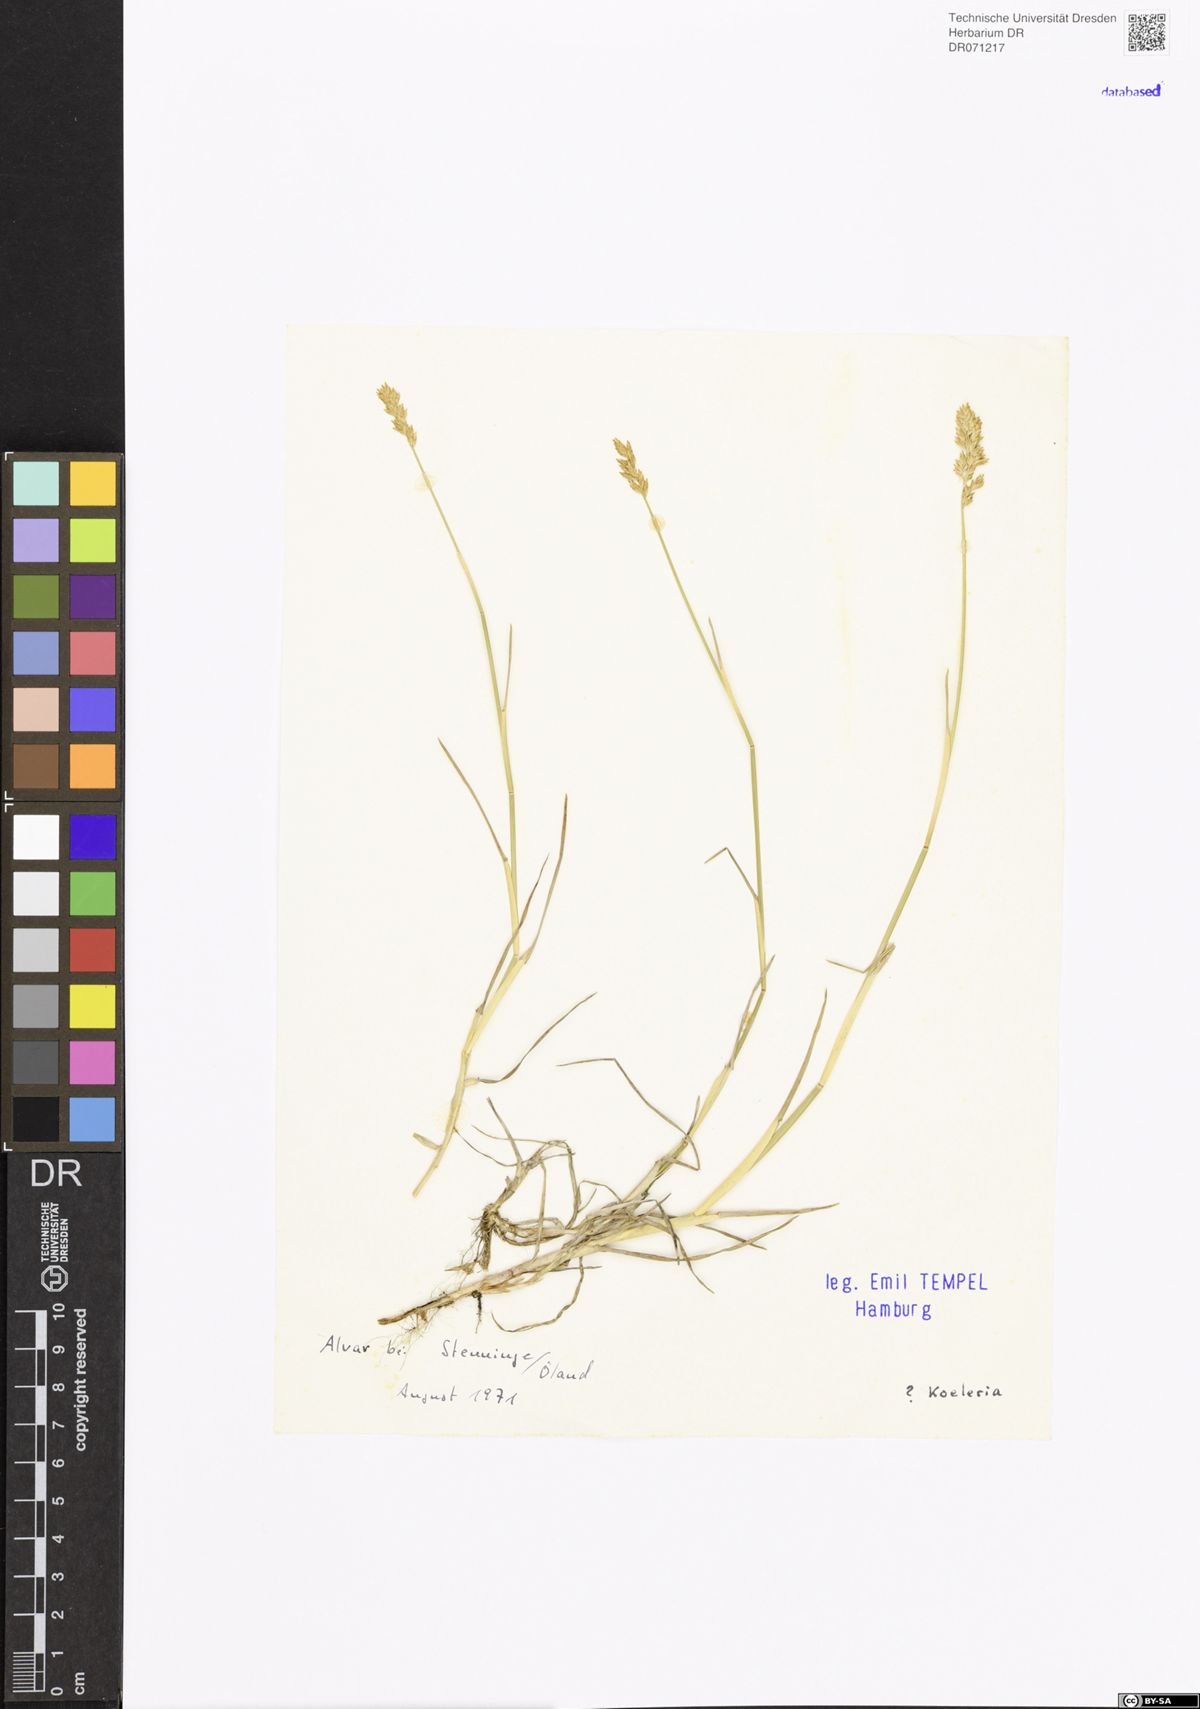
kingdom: Plantae
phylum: Tracheophyta
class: Liliopsida
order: Poales
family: Poaceae
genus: Koeleria
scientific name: Koeleria
